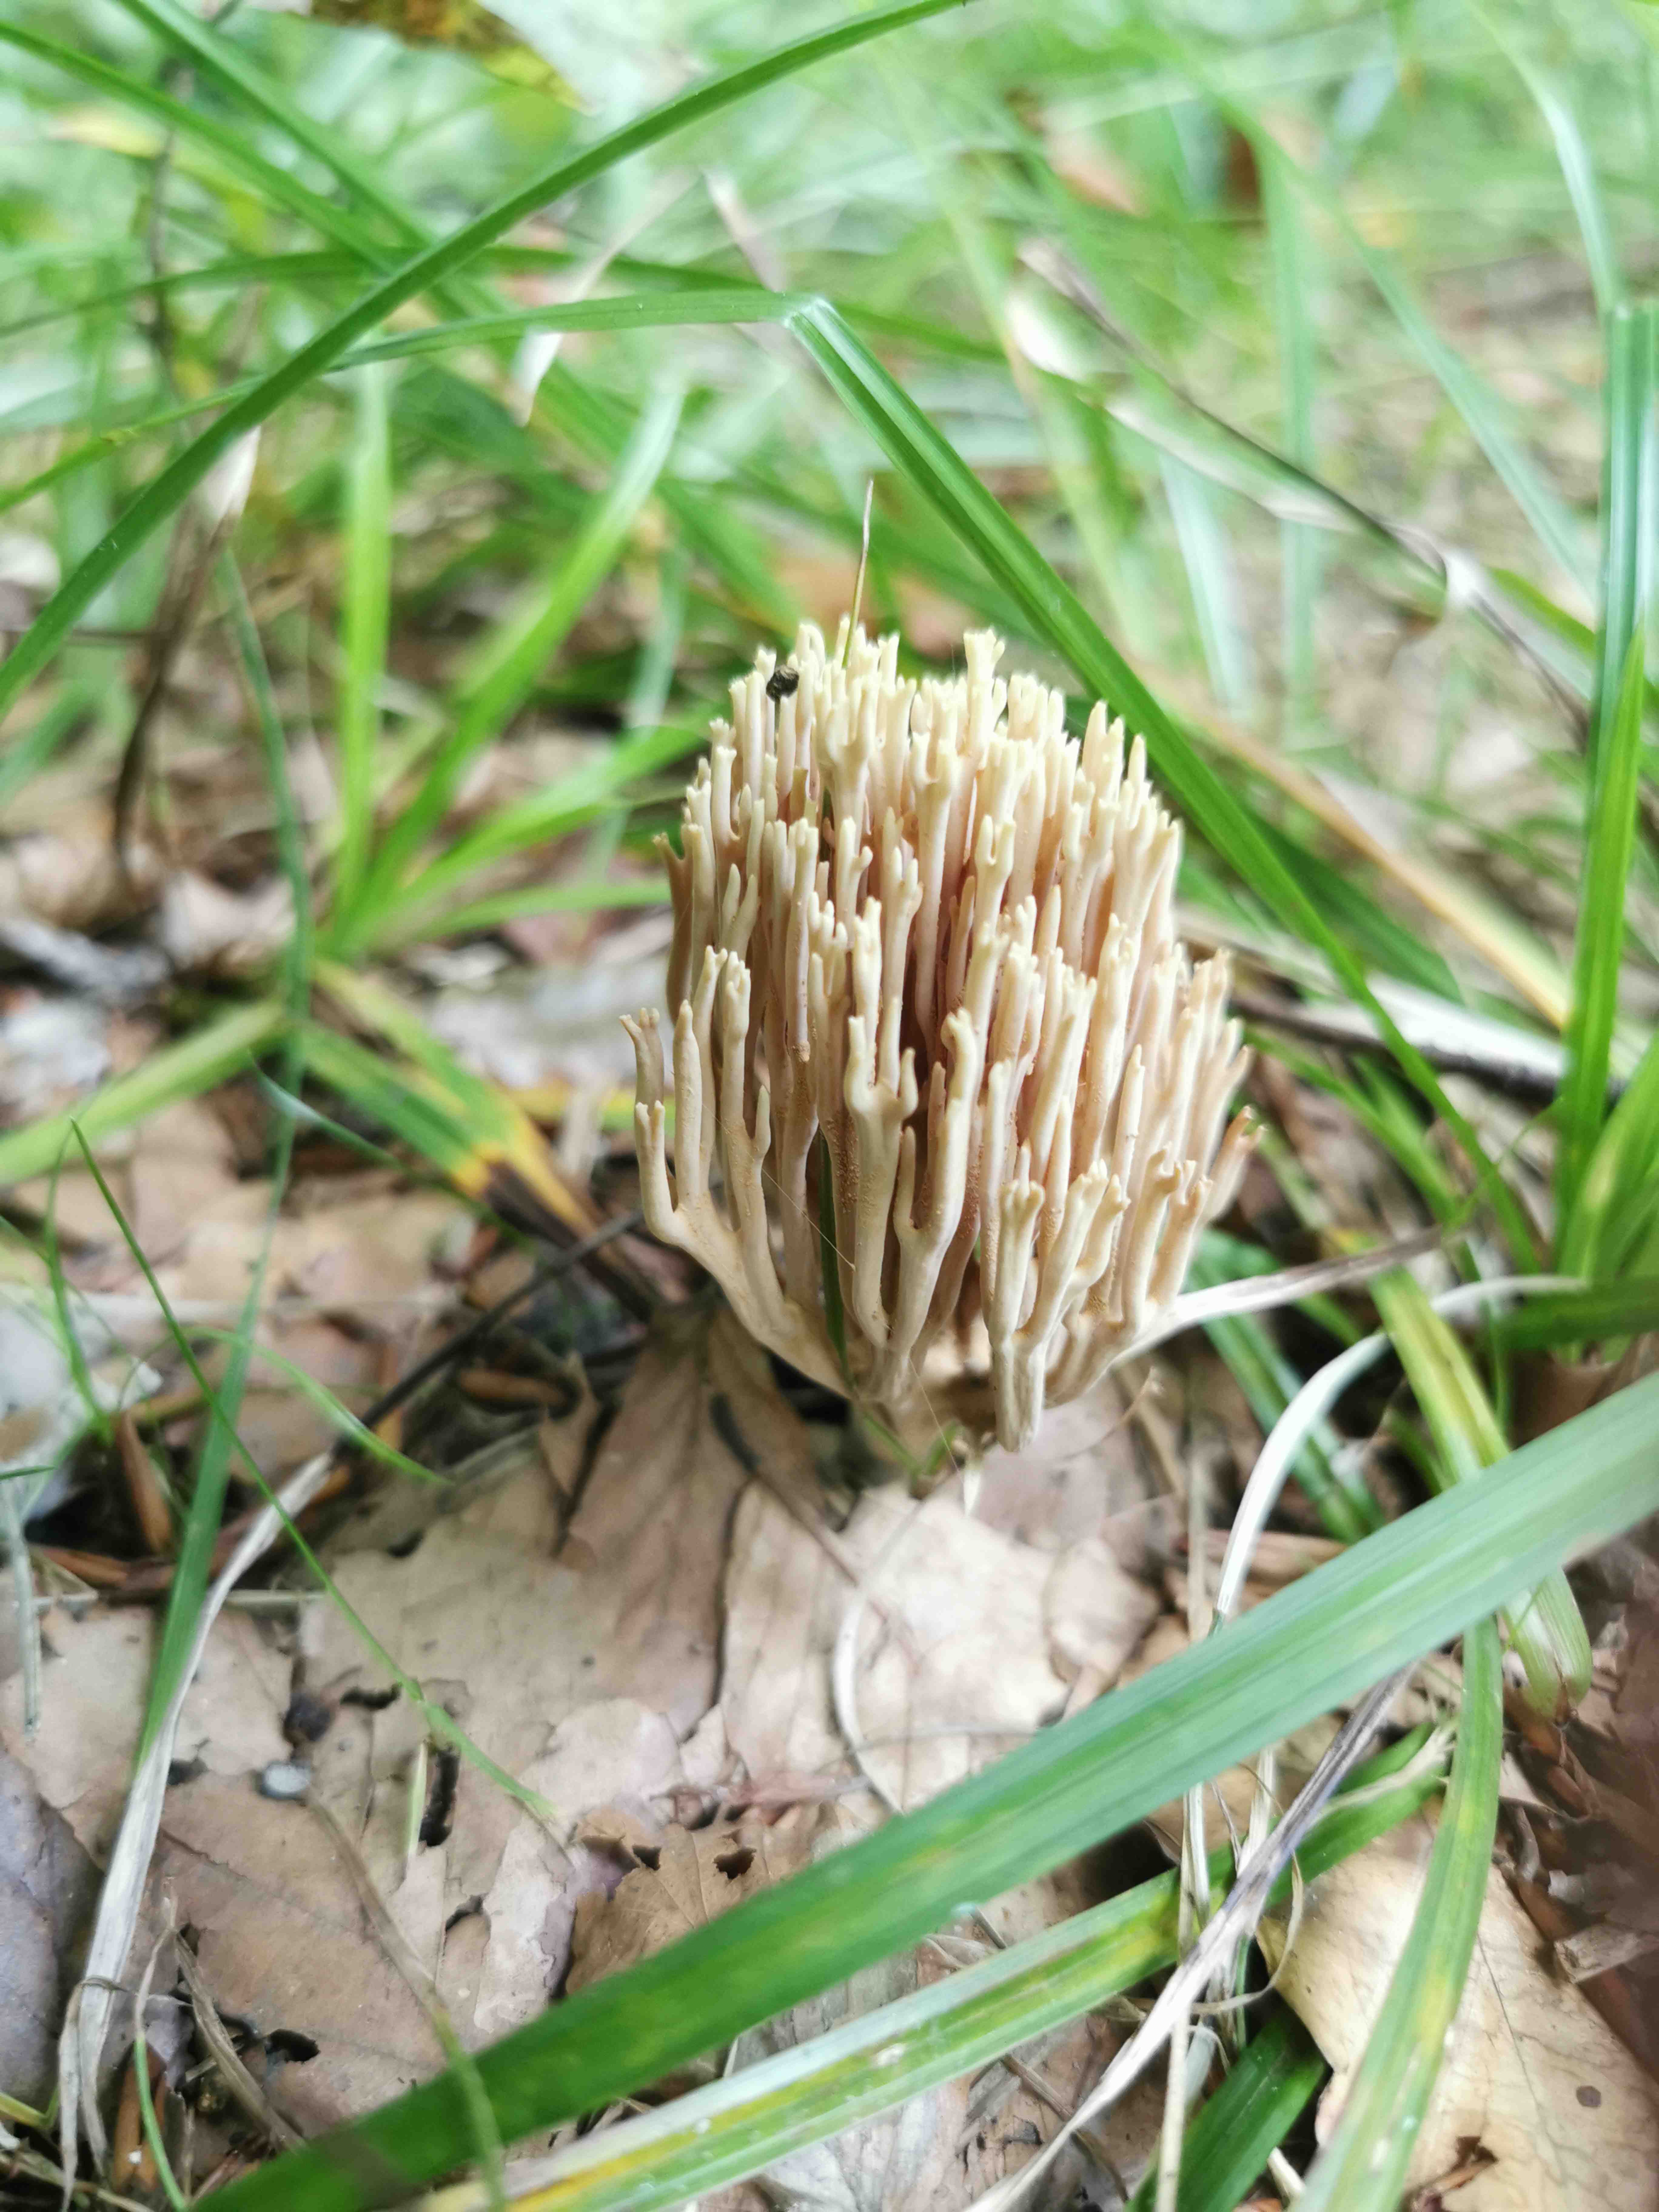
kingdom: Fungi
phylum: Basidiomycota
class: Agaricomycetes
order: Gomphales
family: Gomphaceae
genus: Ramaria
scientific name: Ramaria stricta
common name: rank koralsvamp
